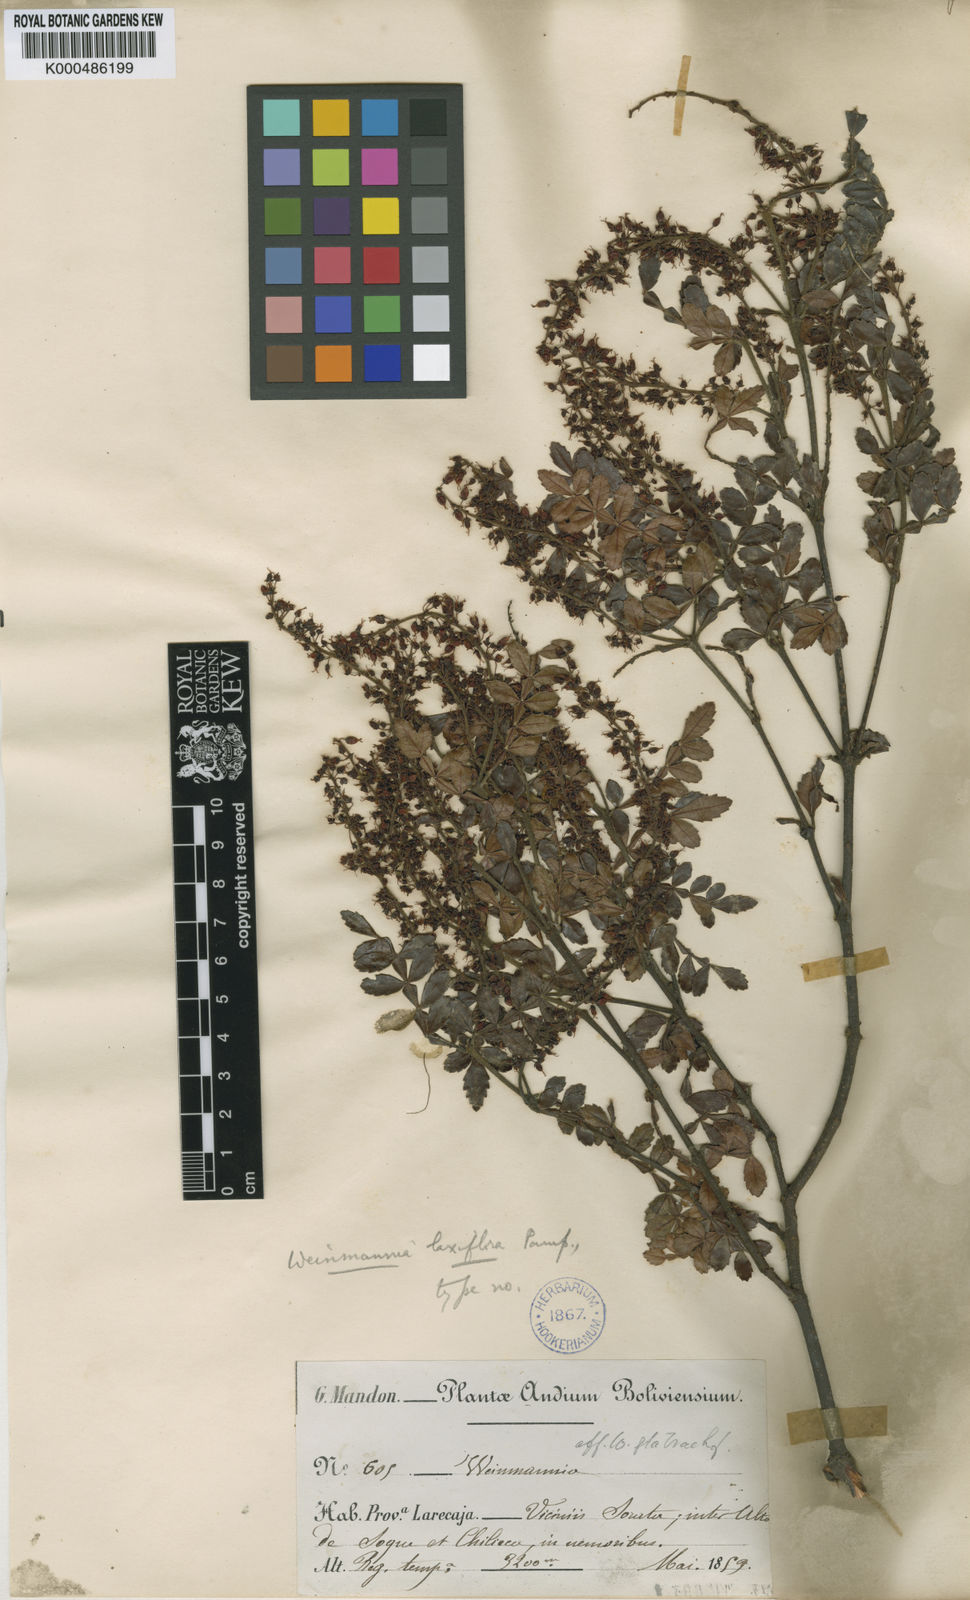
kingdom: Plantae
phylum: Tracheophyta
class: Magnoliopsida
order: Oxalidales
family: Cunoniaceae
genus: Weinmannia
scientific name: Weinmannia pinnata
